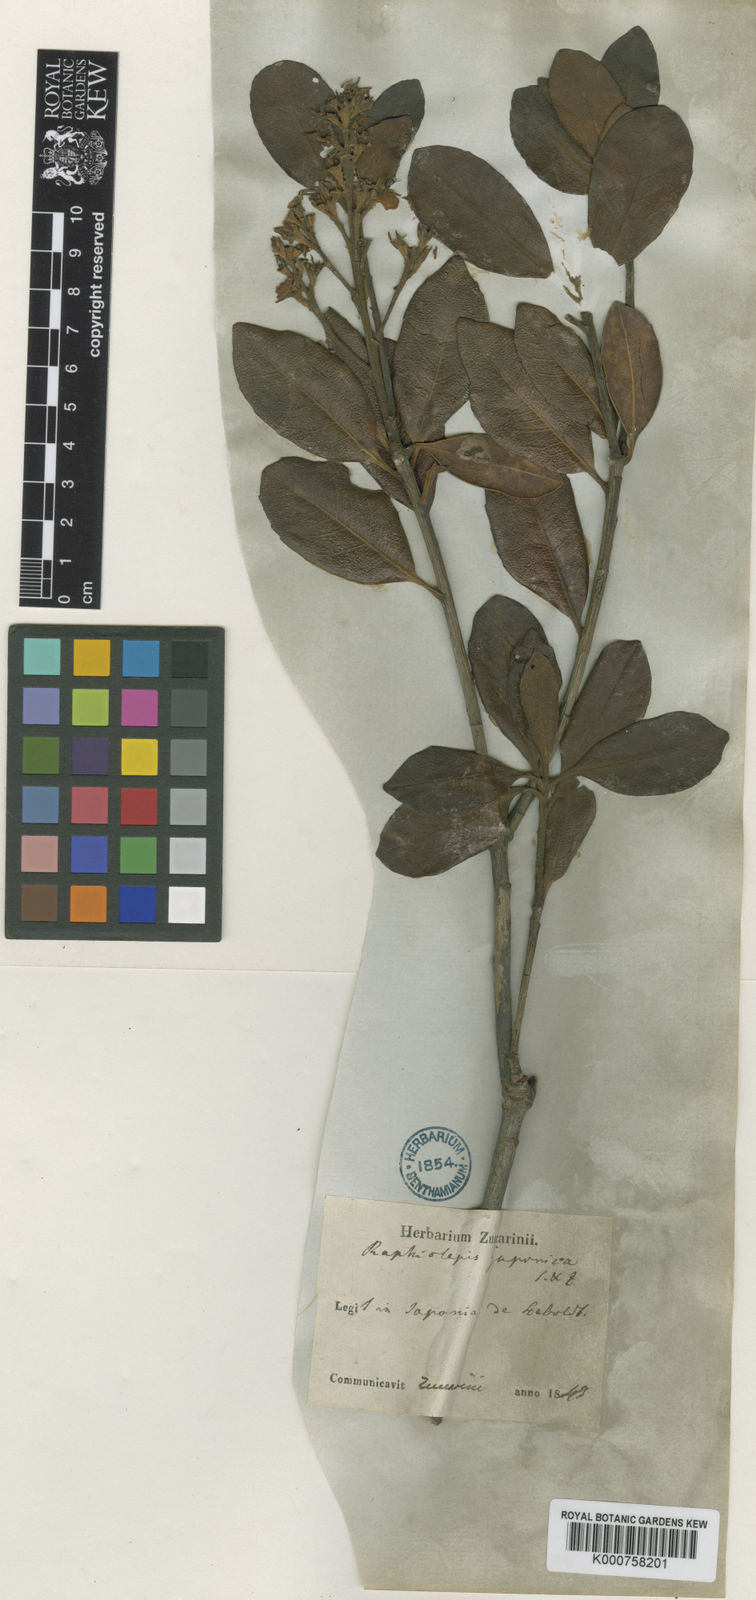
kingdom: Plantae
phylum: Tracheophyta
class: Magnoliopsida
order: Rosales
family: Rosaceae
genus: Rhaphiolepis
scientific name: Rhaphiolepis indica
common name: India-hawthorn
